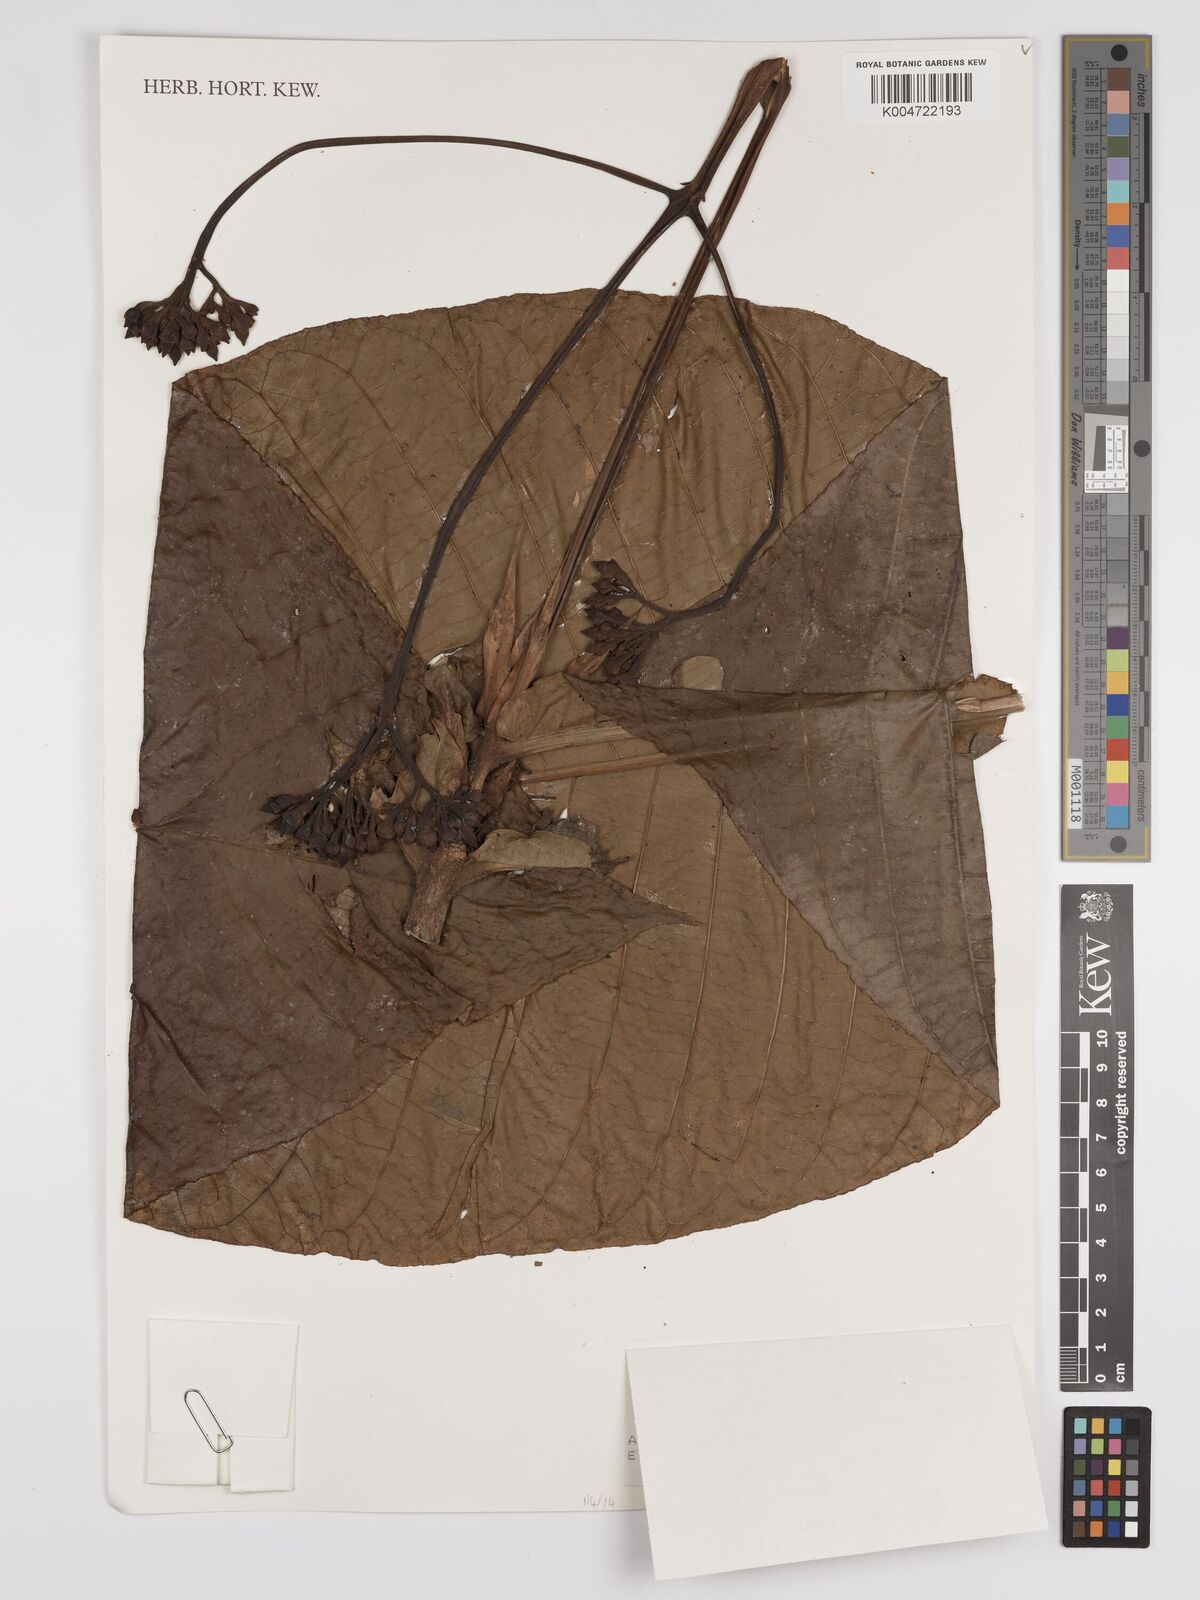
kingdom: Plantae
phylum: Tracheophyta
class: Magnoliopsida
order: Gentianales
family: Rubiaceae
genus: Condaminea
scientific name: Condaminea corymbosa
